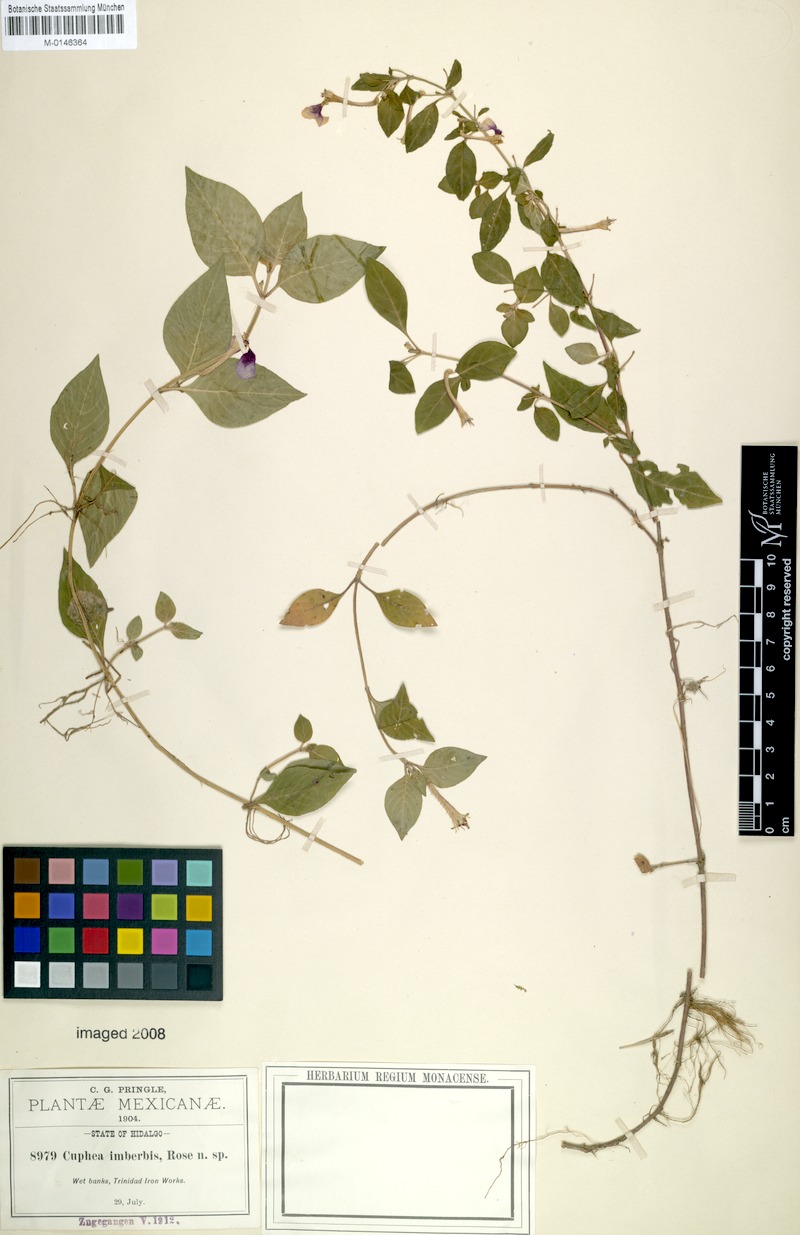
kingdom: Plantae
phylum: Tracheophyta
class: Magnoliopsida
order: Myrtales
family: Lythraceae
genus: Cuphea
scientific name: Cuphea imberbis
